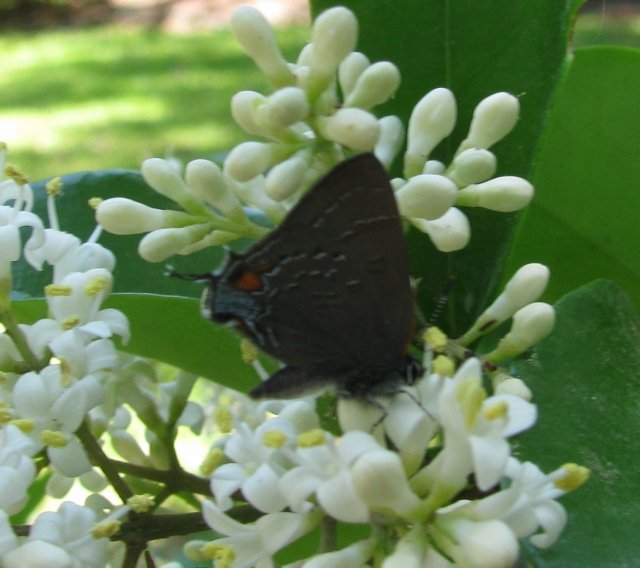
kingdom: Animalia
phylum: Arthropoda
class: Insecta
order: Lepidoptera
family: Lycaenidae
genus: Satyrium
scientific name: Satyrium calanus
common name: Banded Hairstreak
